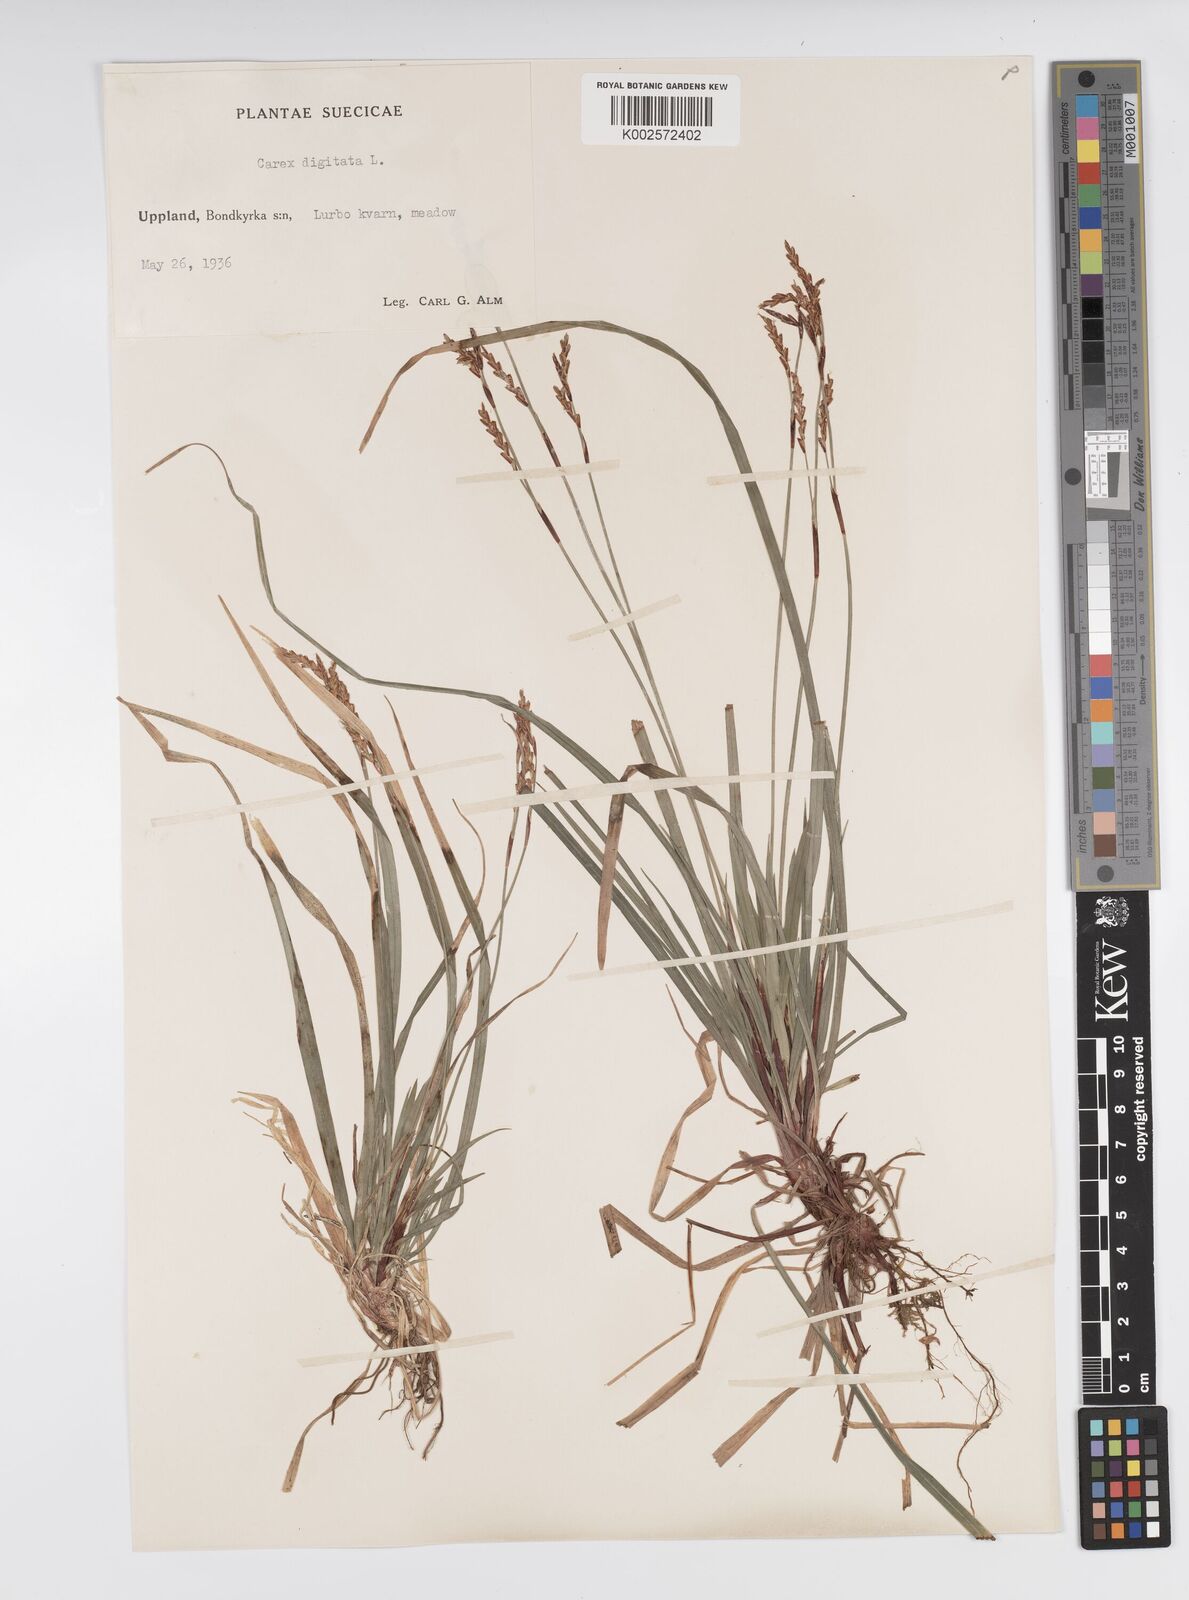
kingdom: Plantae
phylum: Tracheophyta
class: Liliopsida
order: Poales
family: Cyperaceae
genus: Carex
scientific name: Carex digitata
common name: Fingered sedge
